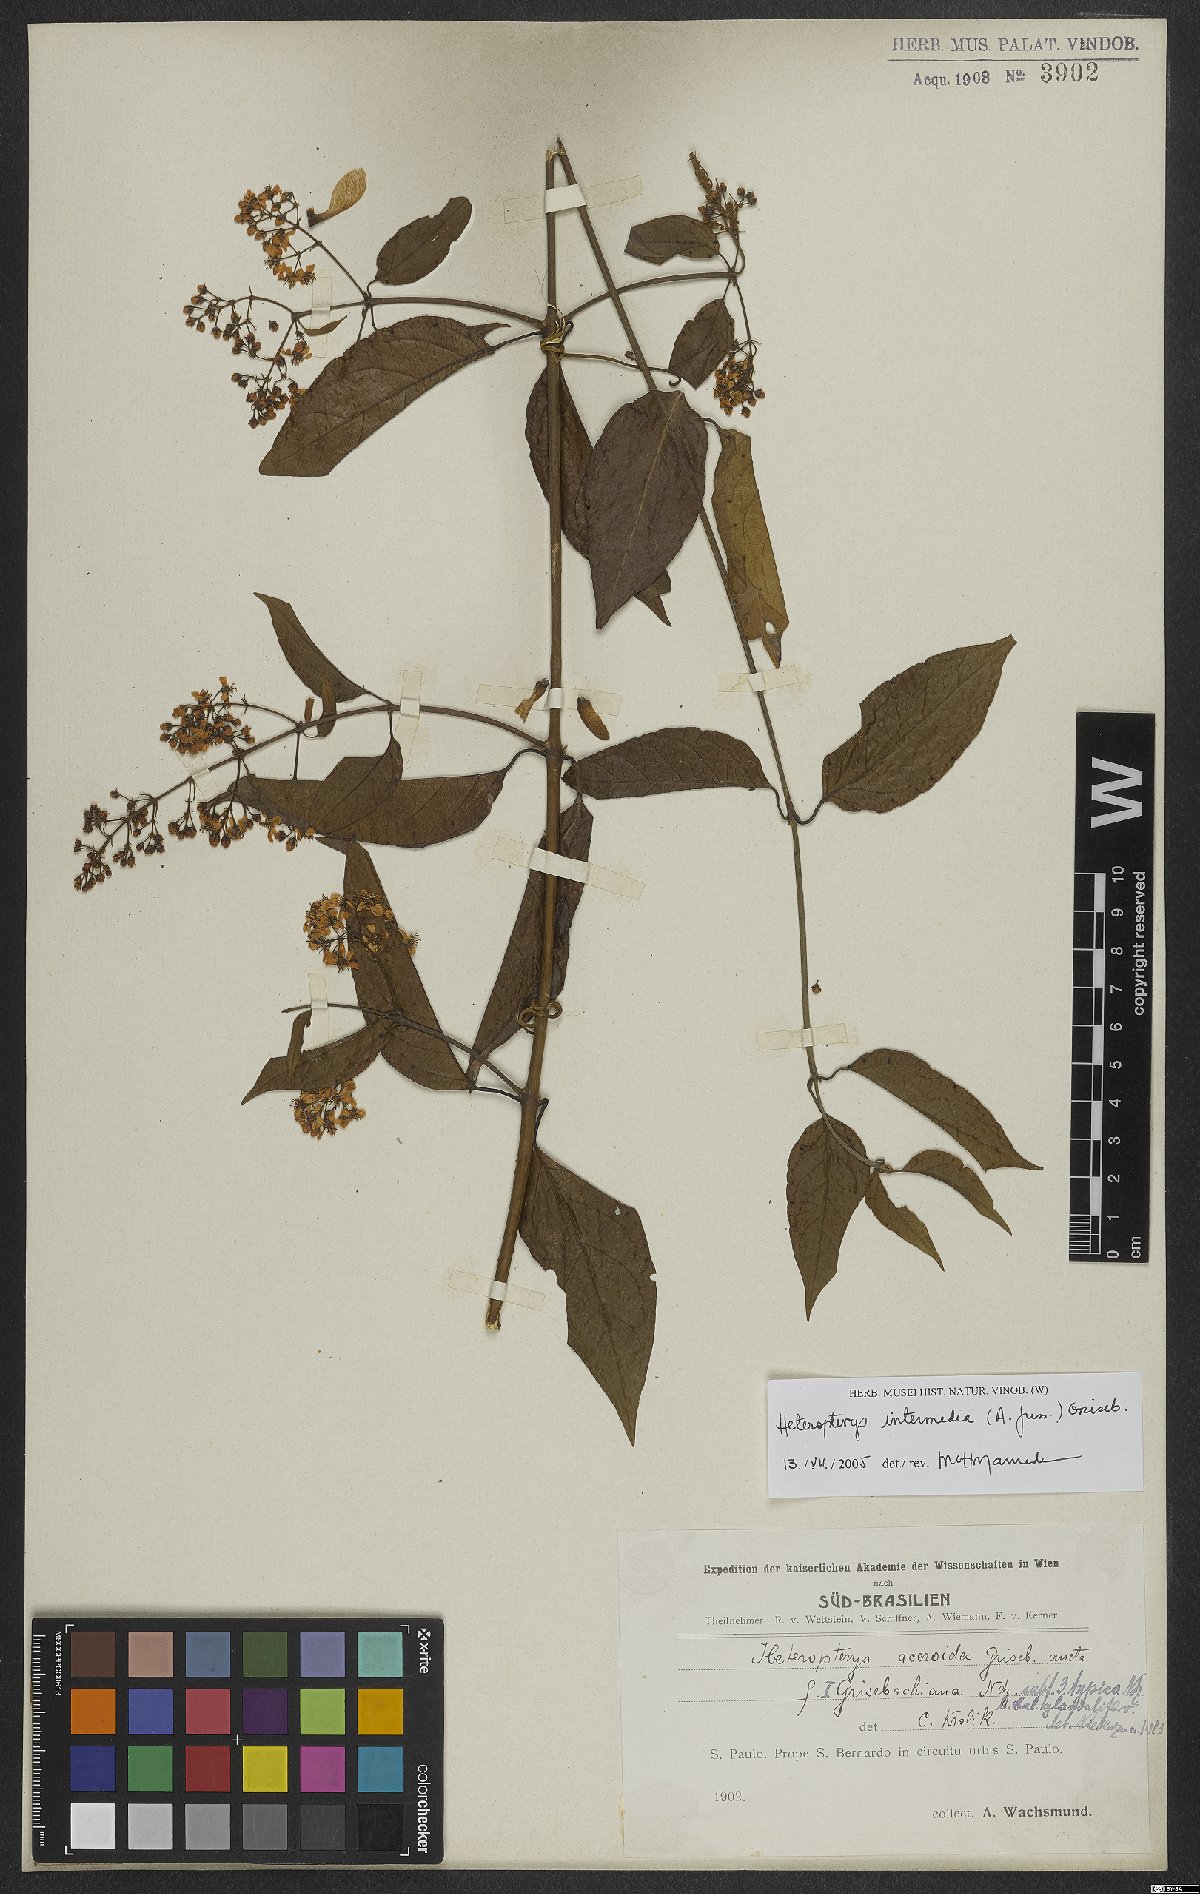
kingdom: Plantae
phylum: Tracheophyta
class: Magnoliopsida
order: Malpighiales
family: Malpighiaceae
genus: Heteropterys
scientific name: Heteropterys intermedia
